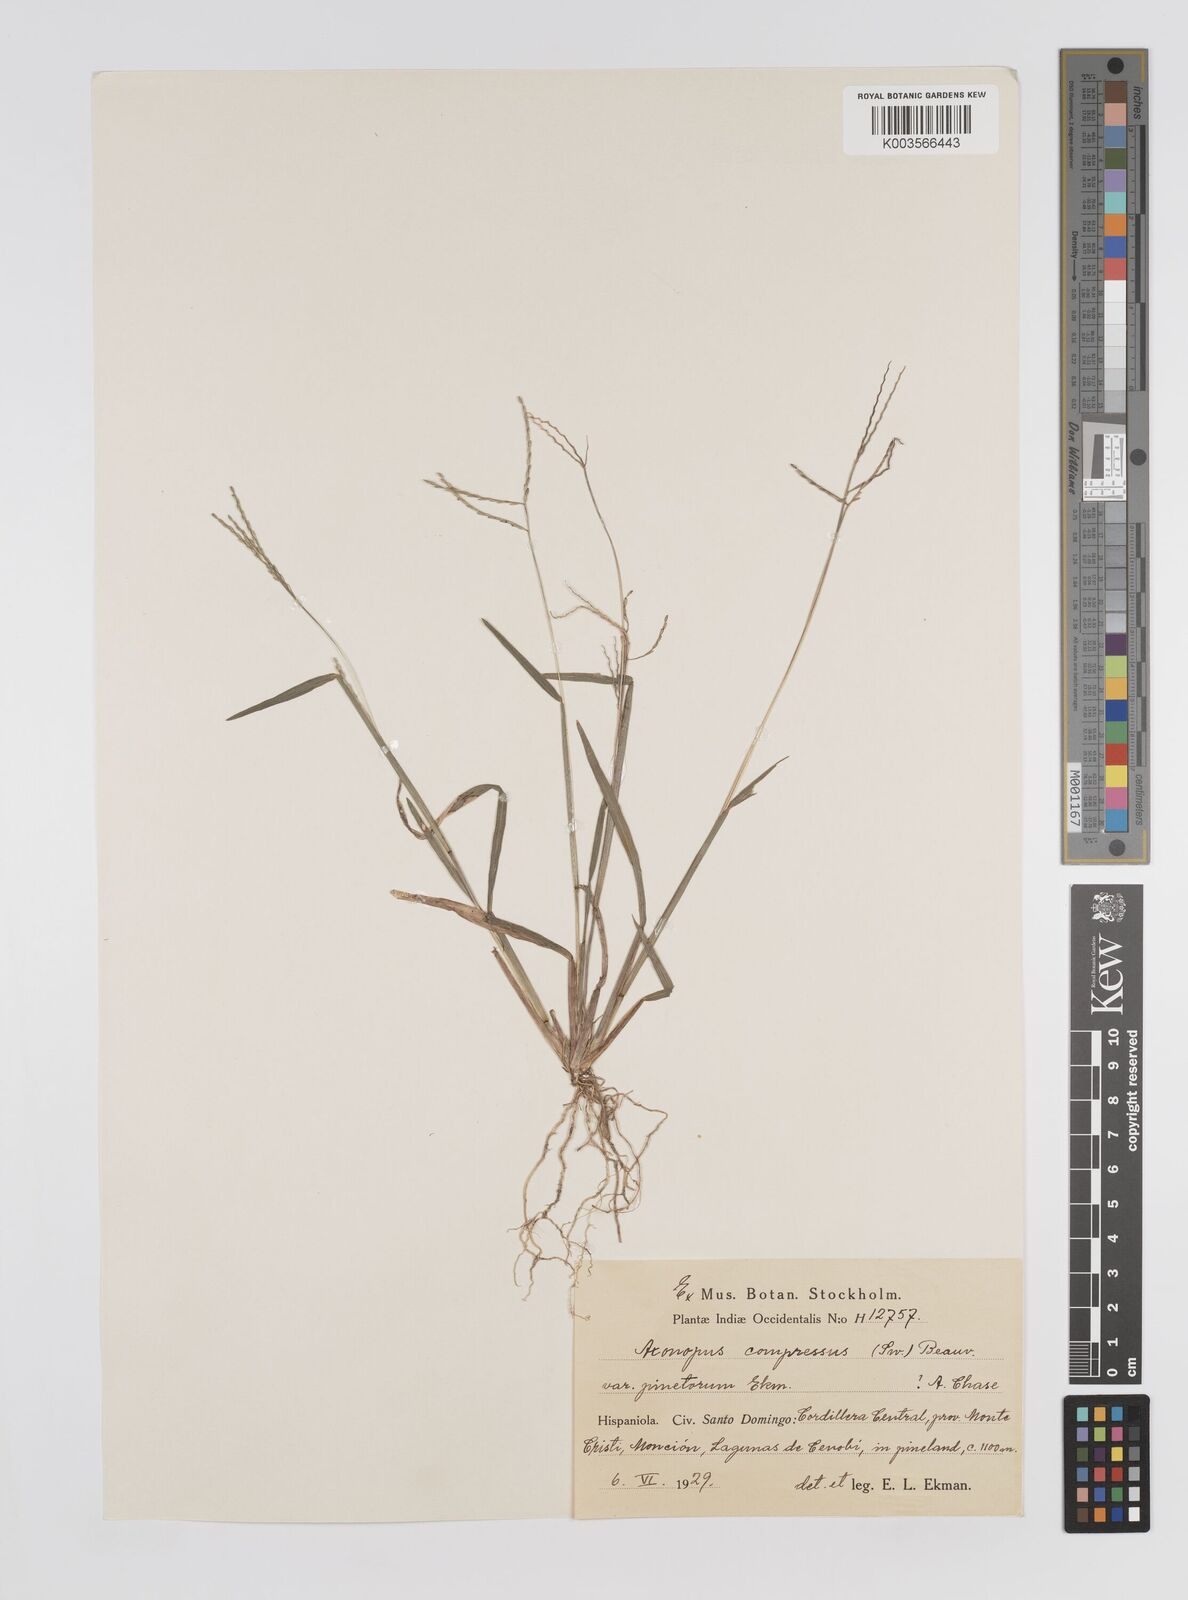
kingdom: Plantae
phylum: Tracheophyta
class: Liliopsida
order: Poales
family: Poaceae
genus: Axonopus
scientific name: Axonopus compressus
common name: American carpet grass
